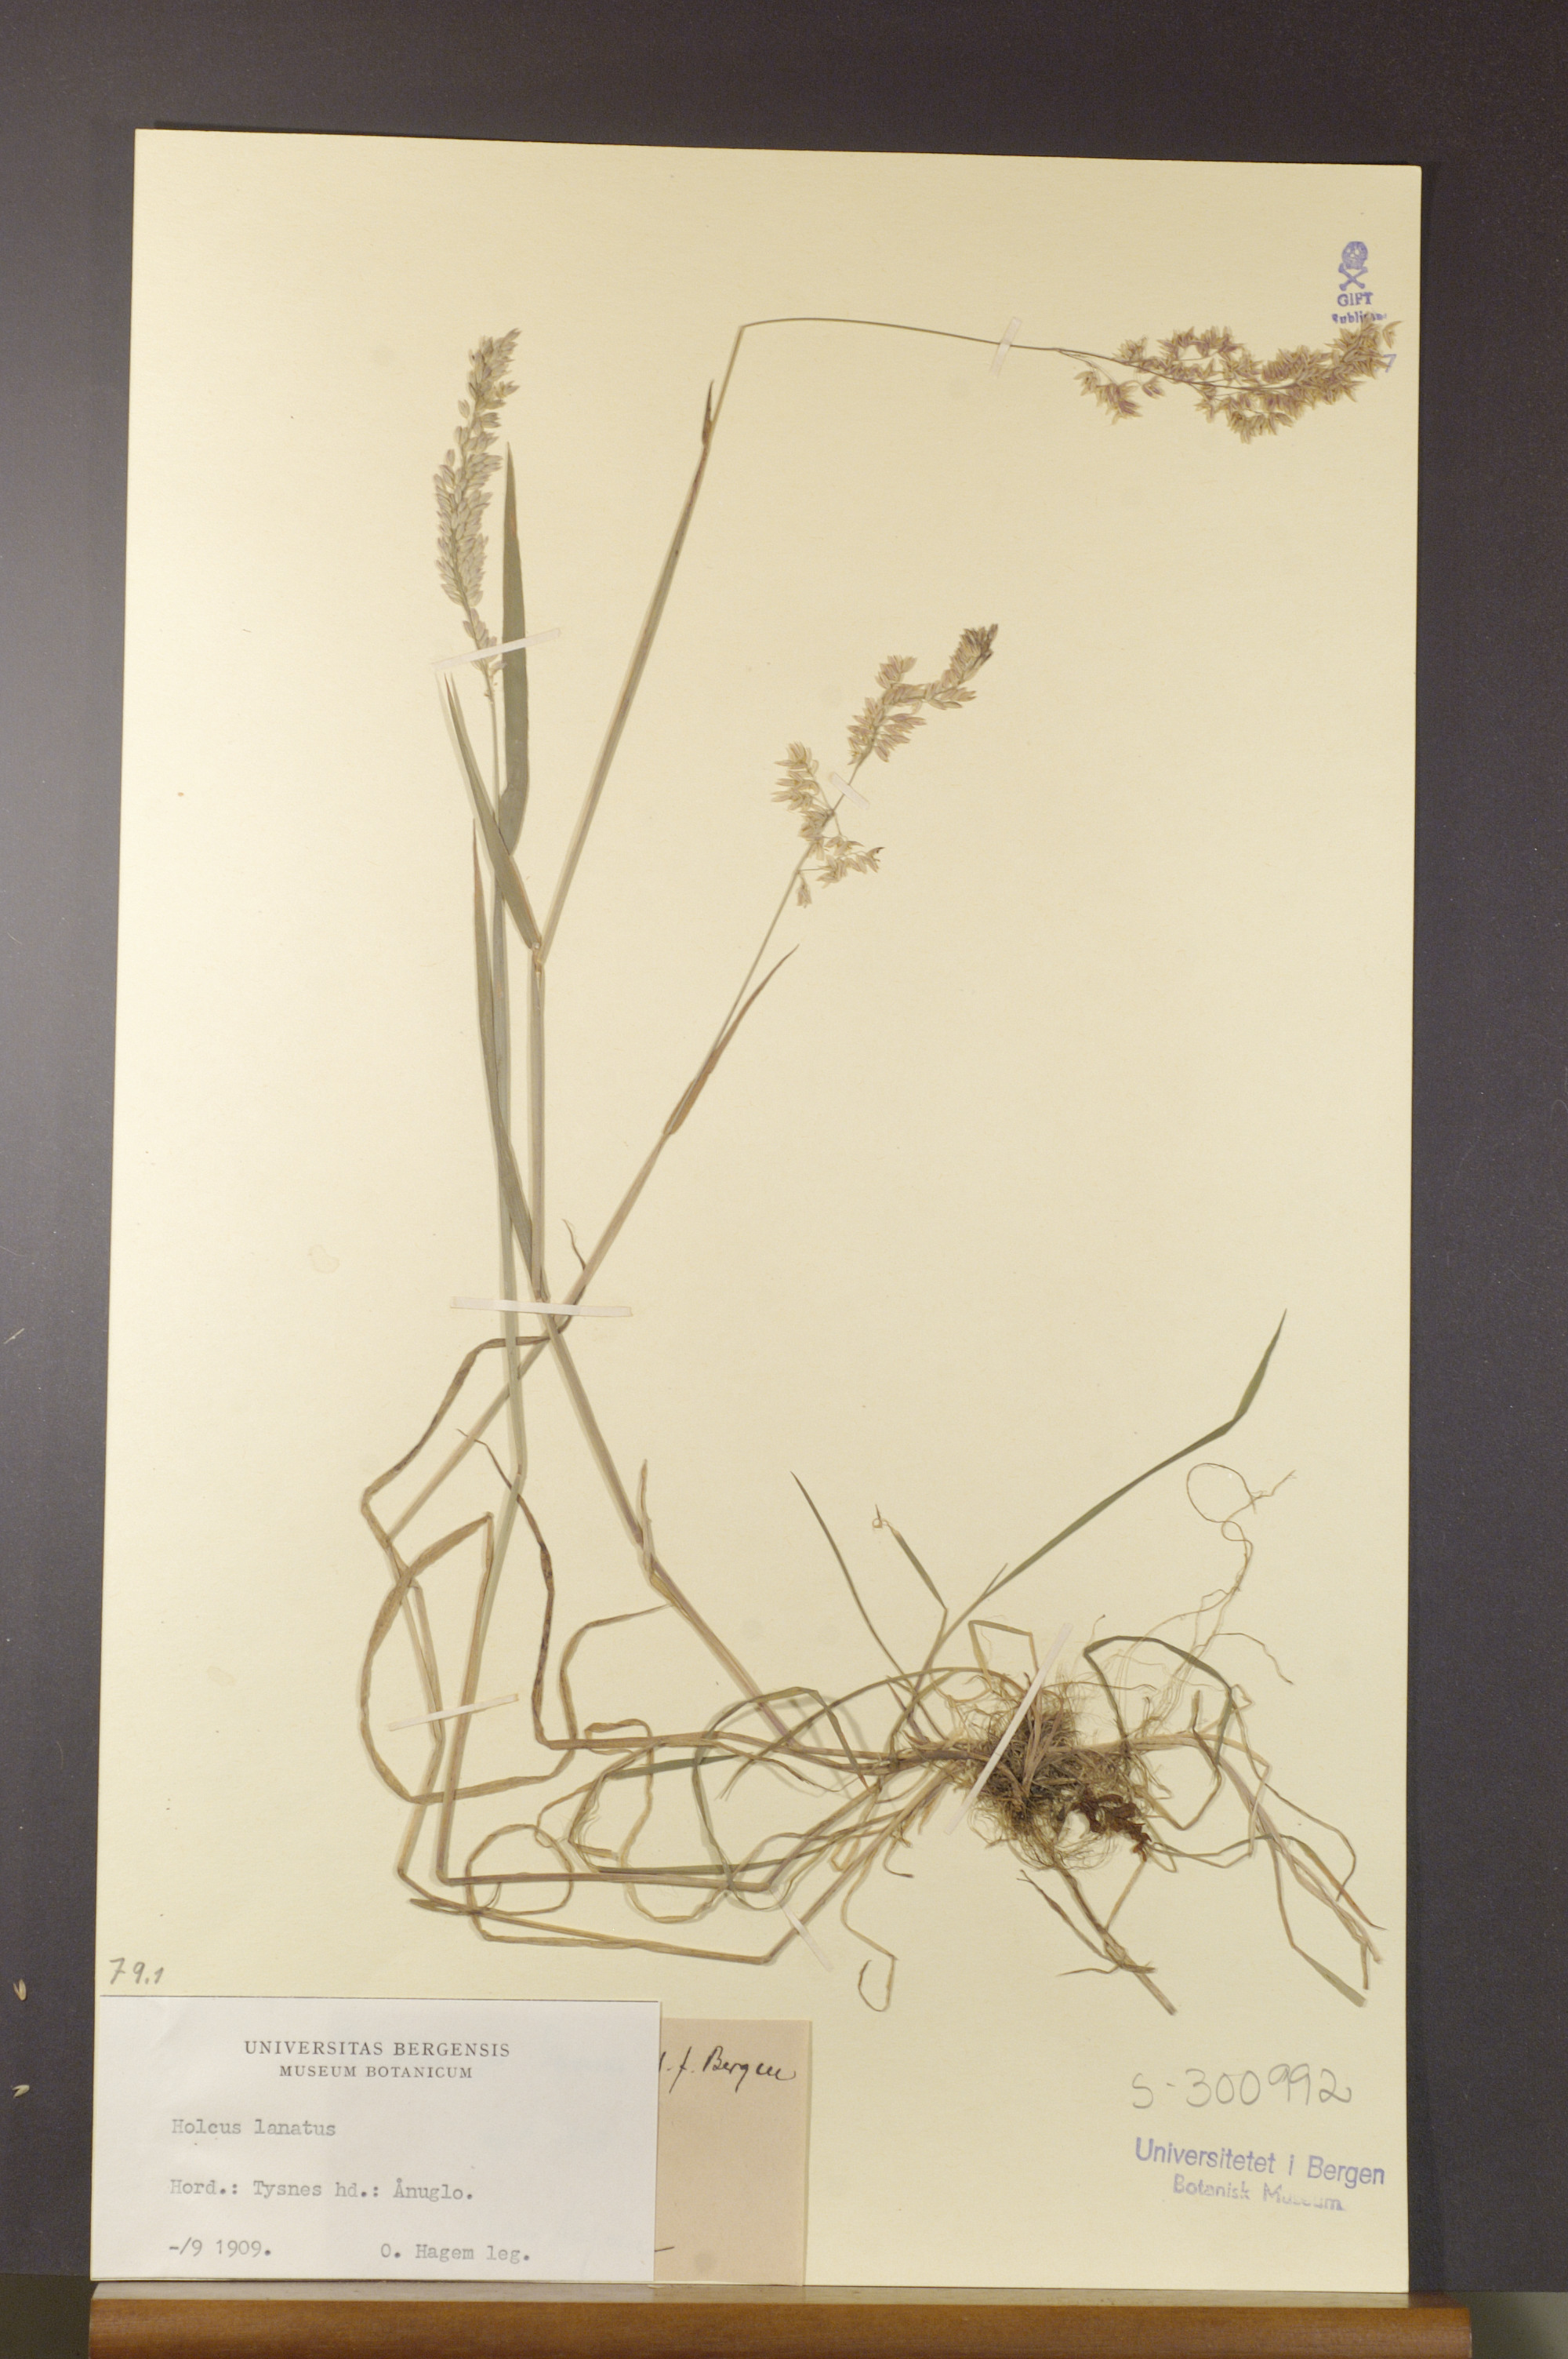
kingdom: Plantae
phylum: Tracheophyta
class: Liliopsida
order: Poales
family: Poaceae
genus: Holcus
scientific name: Holcus lanatus
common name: Yorkshire-fog
